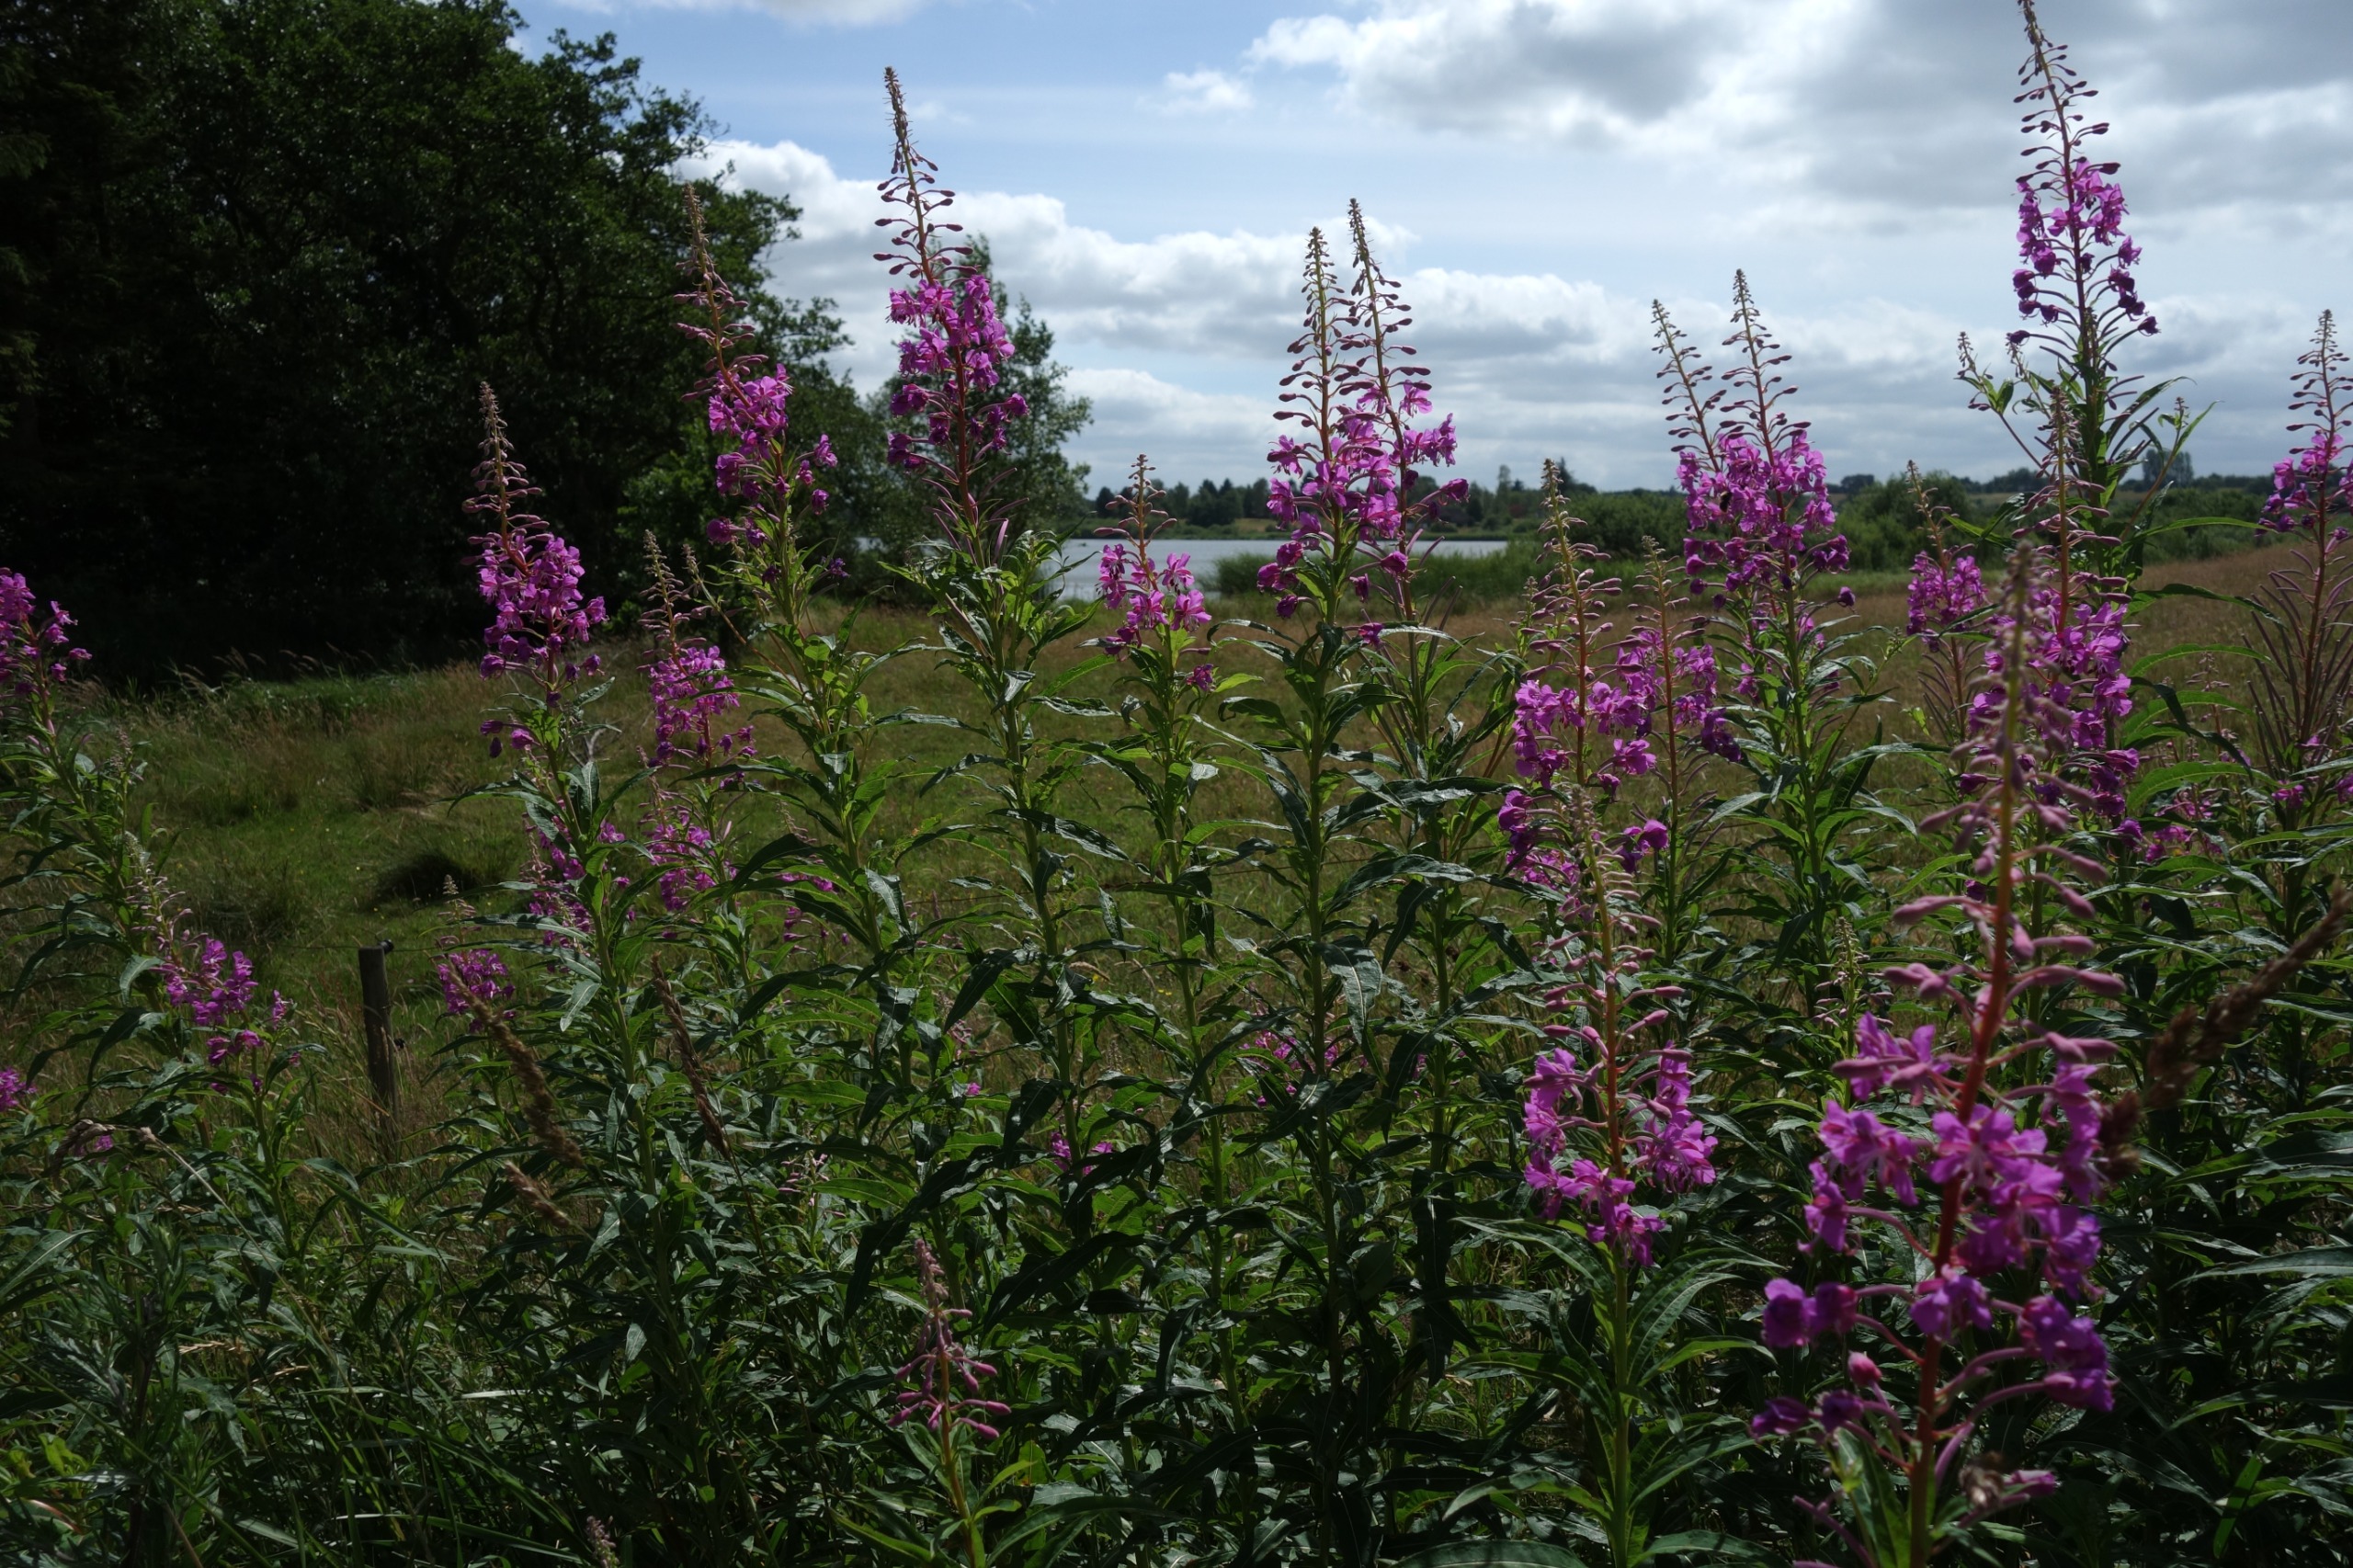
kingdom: Plantae
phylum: Tracheophyta
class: Magnoliopsida
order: Myrtales
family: Onagraceae
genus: Chamaenerion
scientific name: Chamaenerion angustifolium
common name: Gederams
